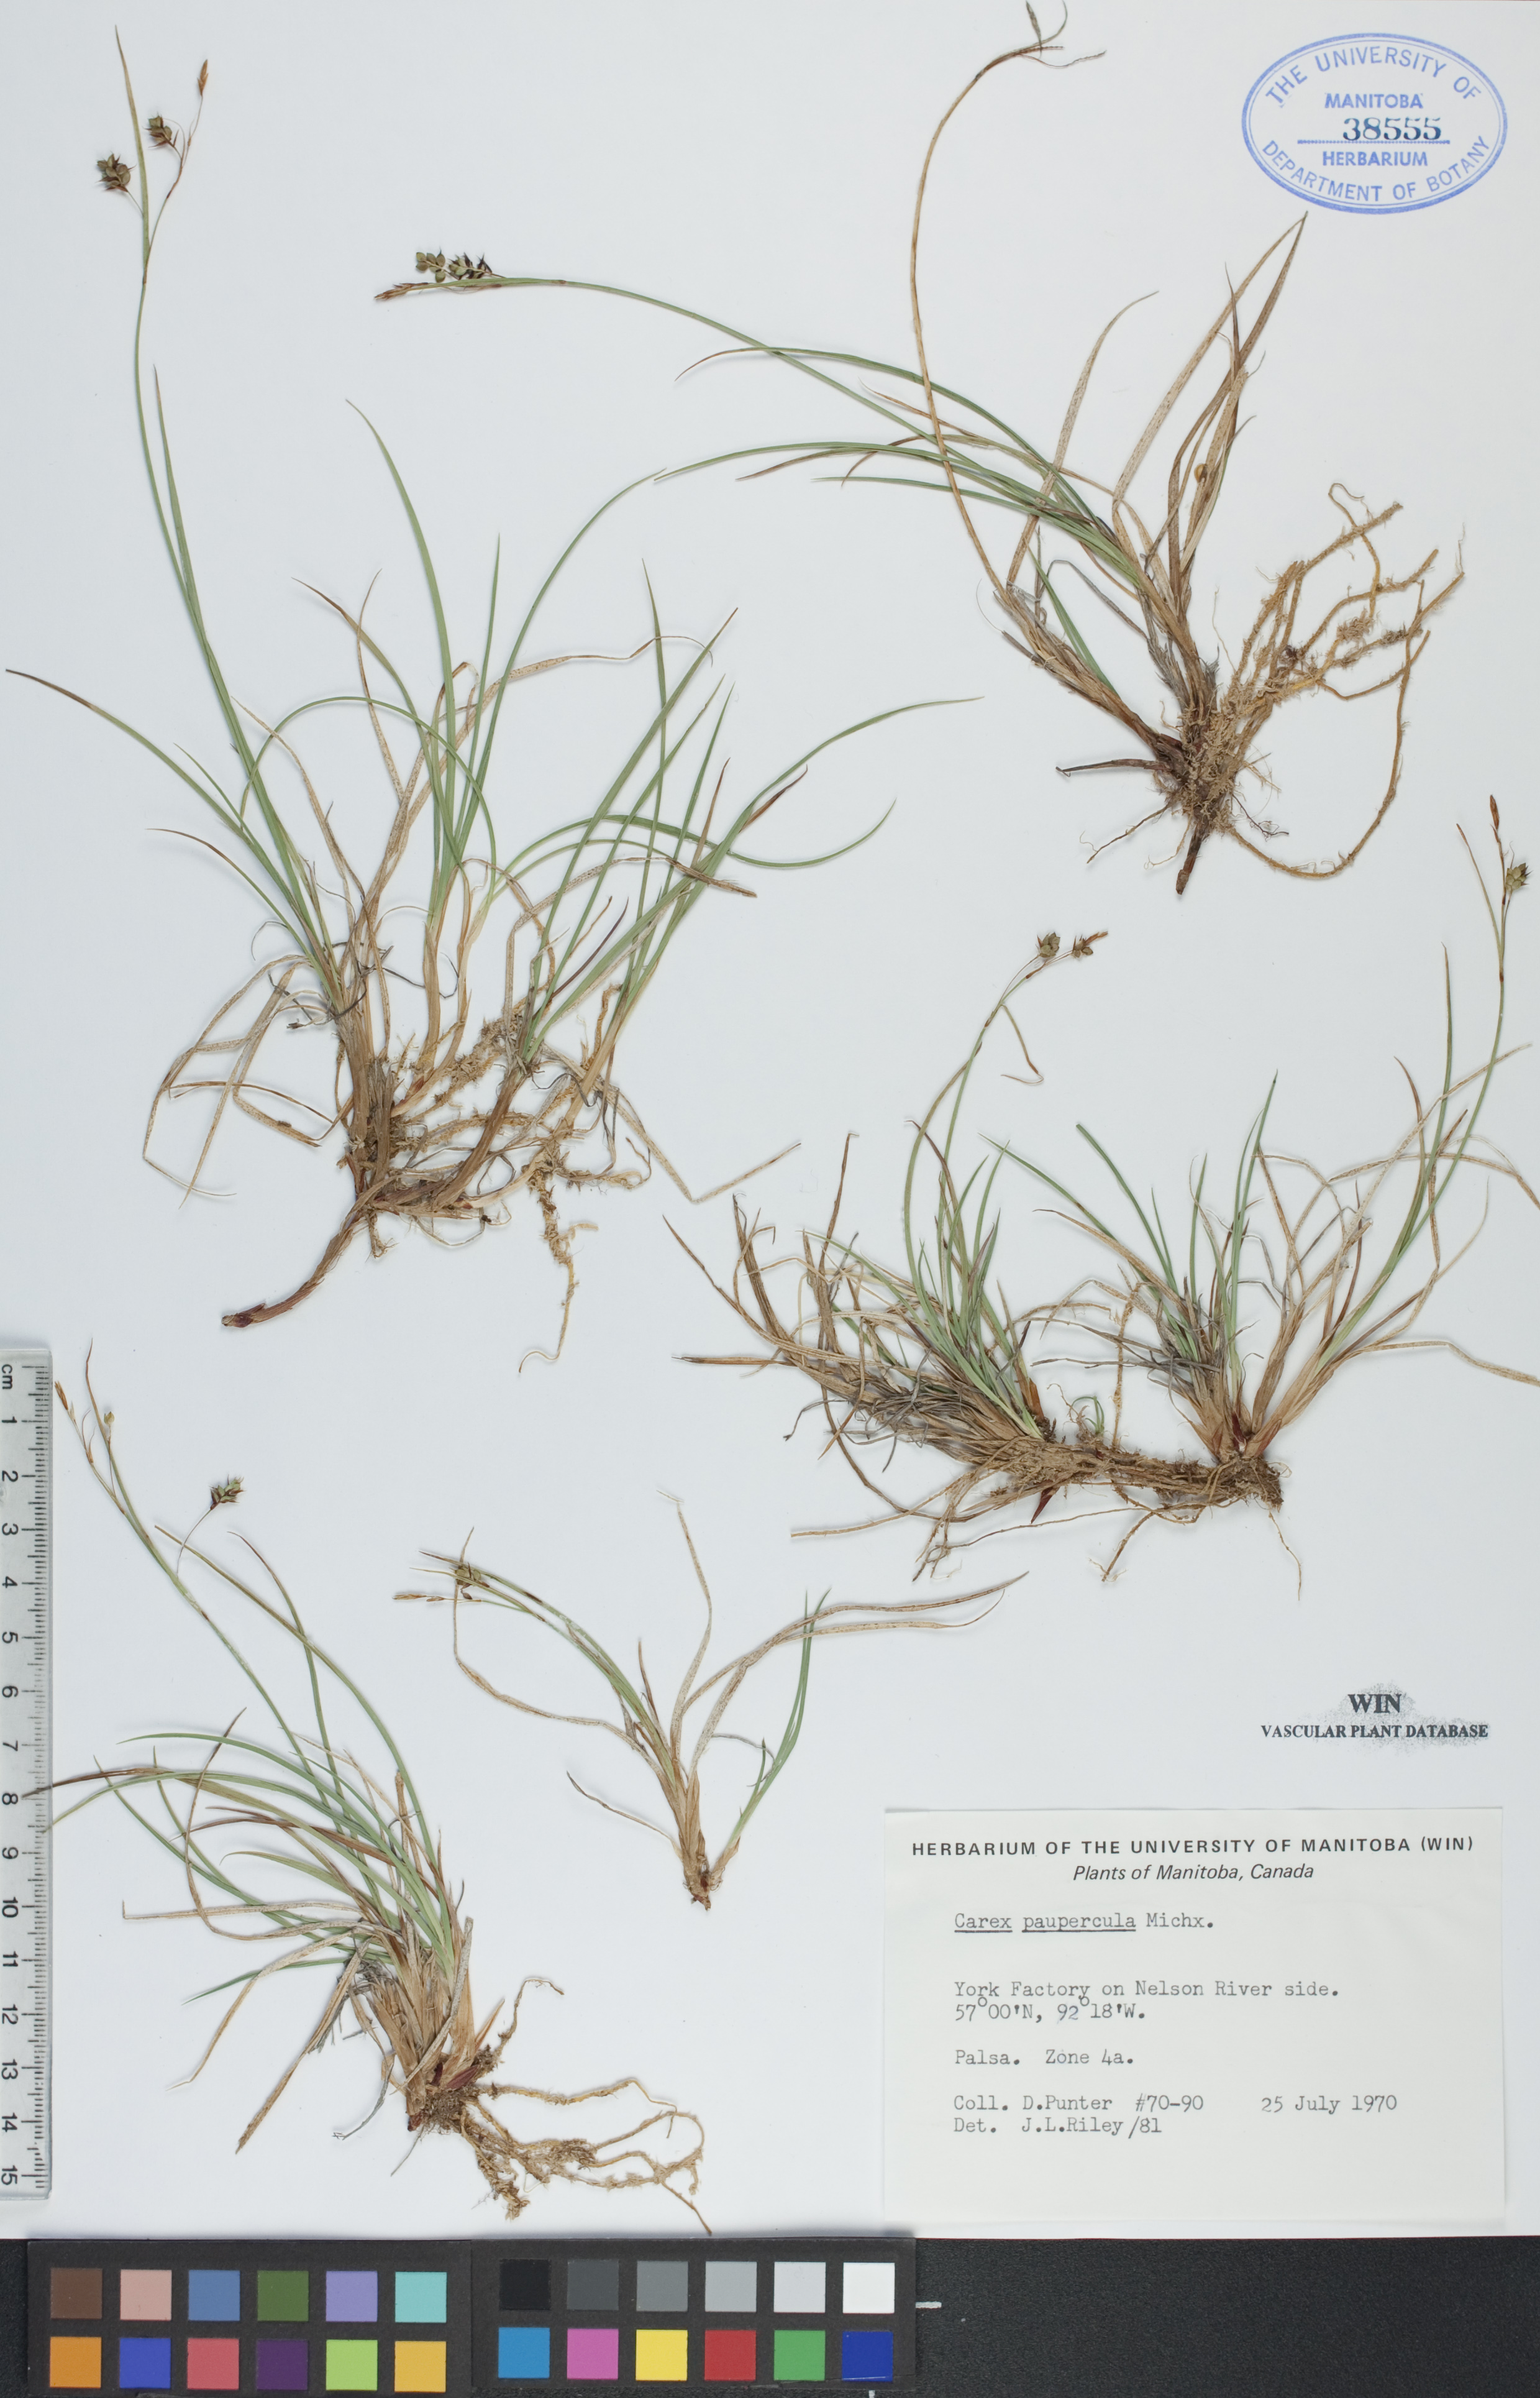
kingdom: Plantae
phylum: Tracheophyta
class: Liliopsida
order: Poales
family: Cyperaceae
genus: Carex
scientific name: Carex magellanica
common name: Bog sedge
